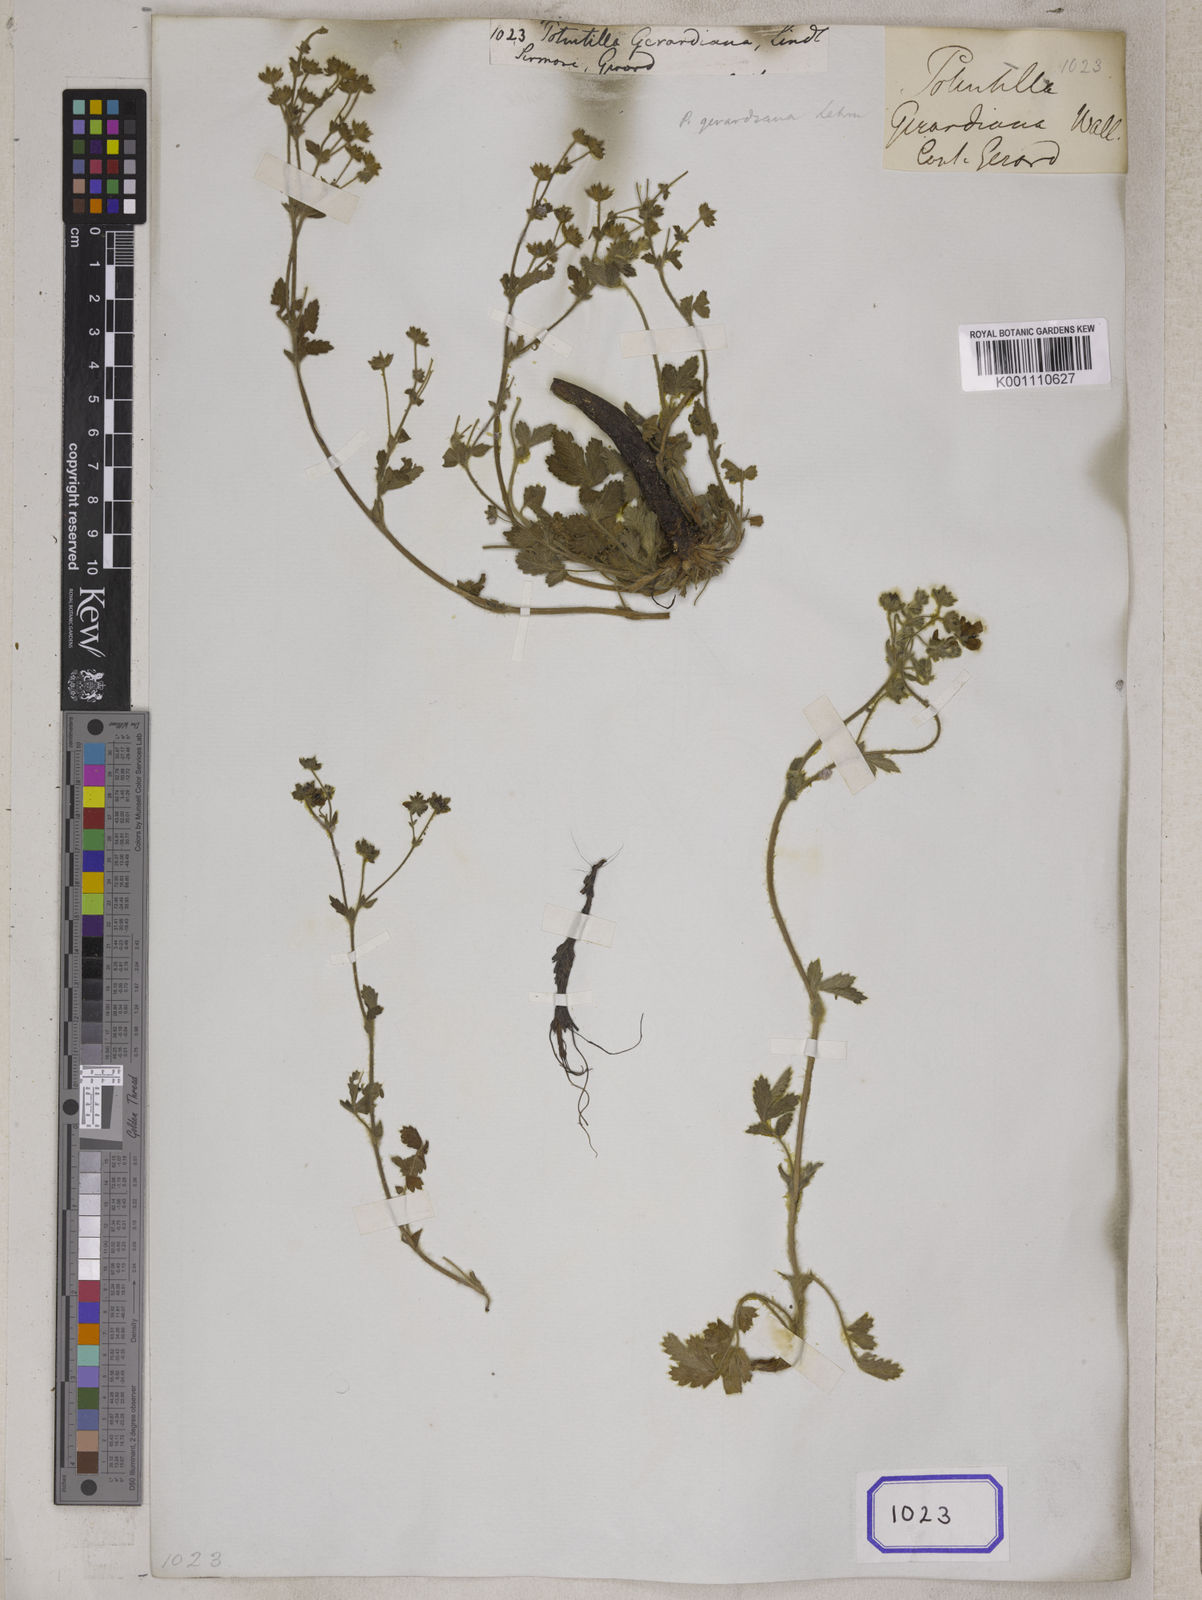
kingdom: Plantae
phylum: Tracheophyta
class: Magnoliopsida
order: Rosales
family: Rosaceae
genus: Potentilla
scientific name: Potentilla
